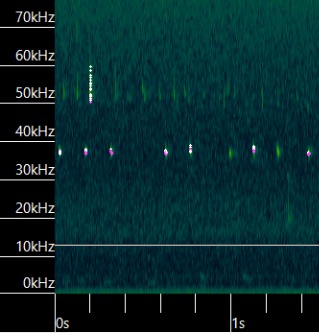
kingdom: Animalia
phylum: Chordata
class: Mammalia
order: Chiroptera
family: Vespertilionidae
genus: Pipistrellus
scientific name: Pipistrellus nathusii
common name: Troldflagermus
